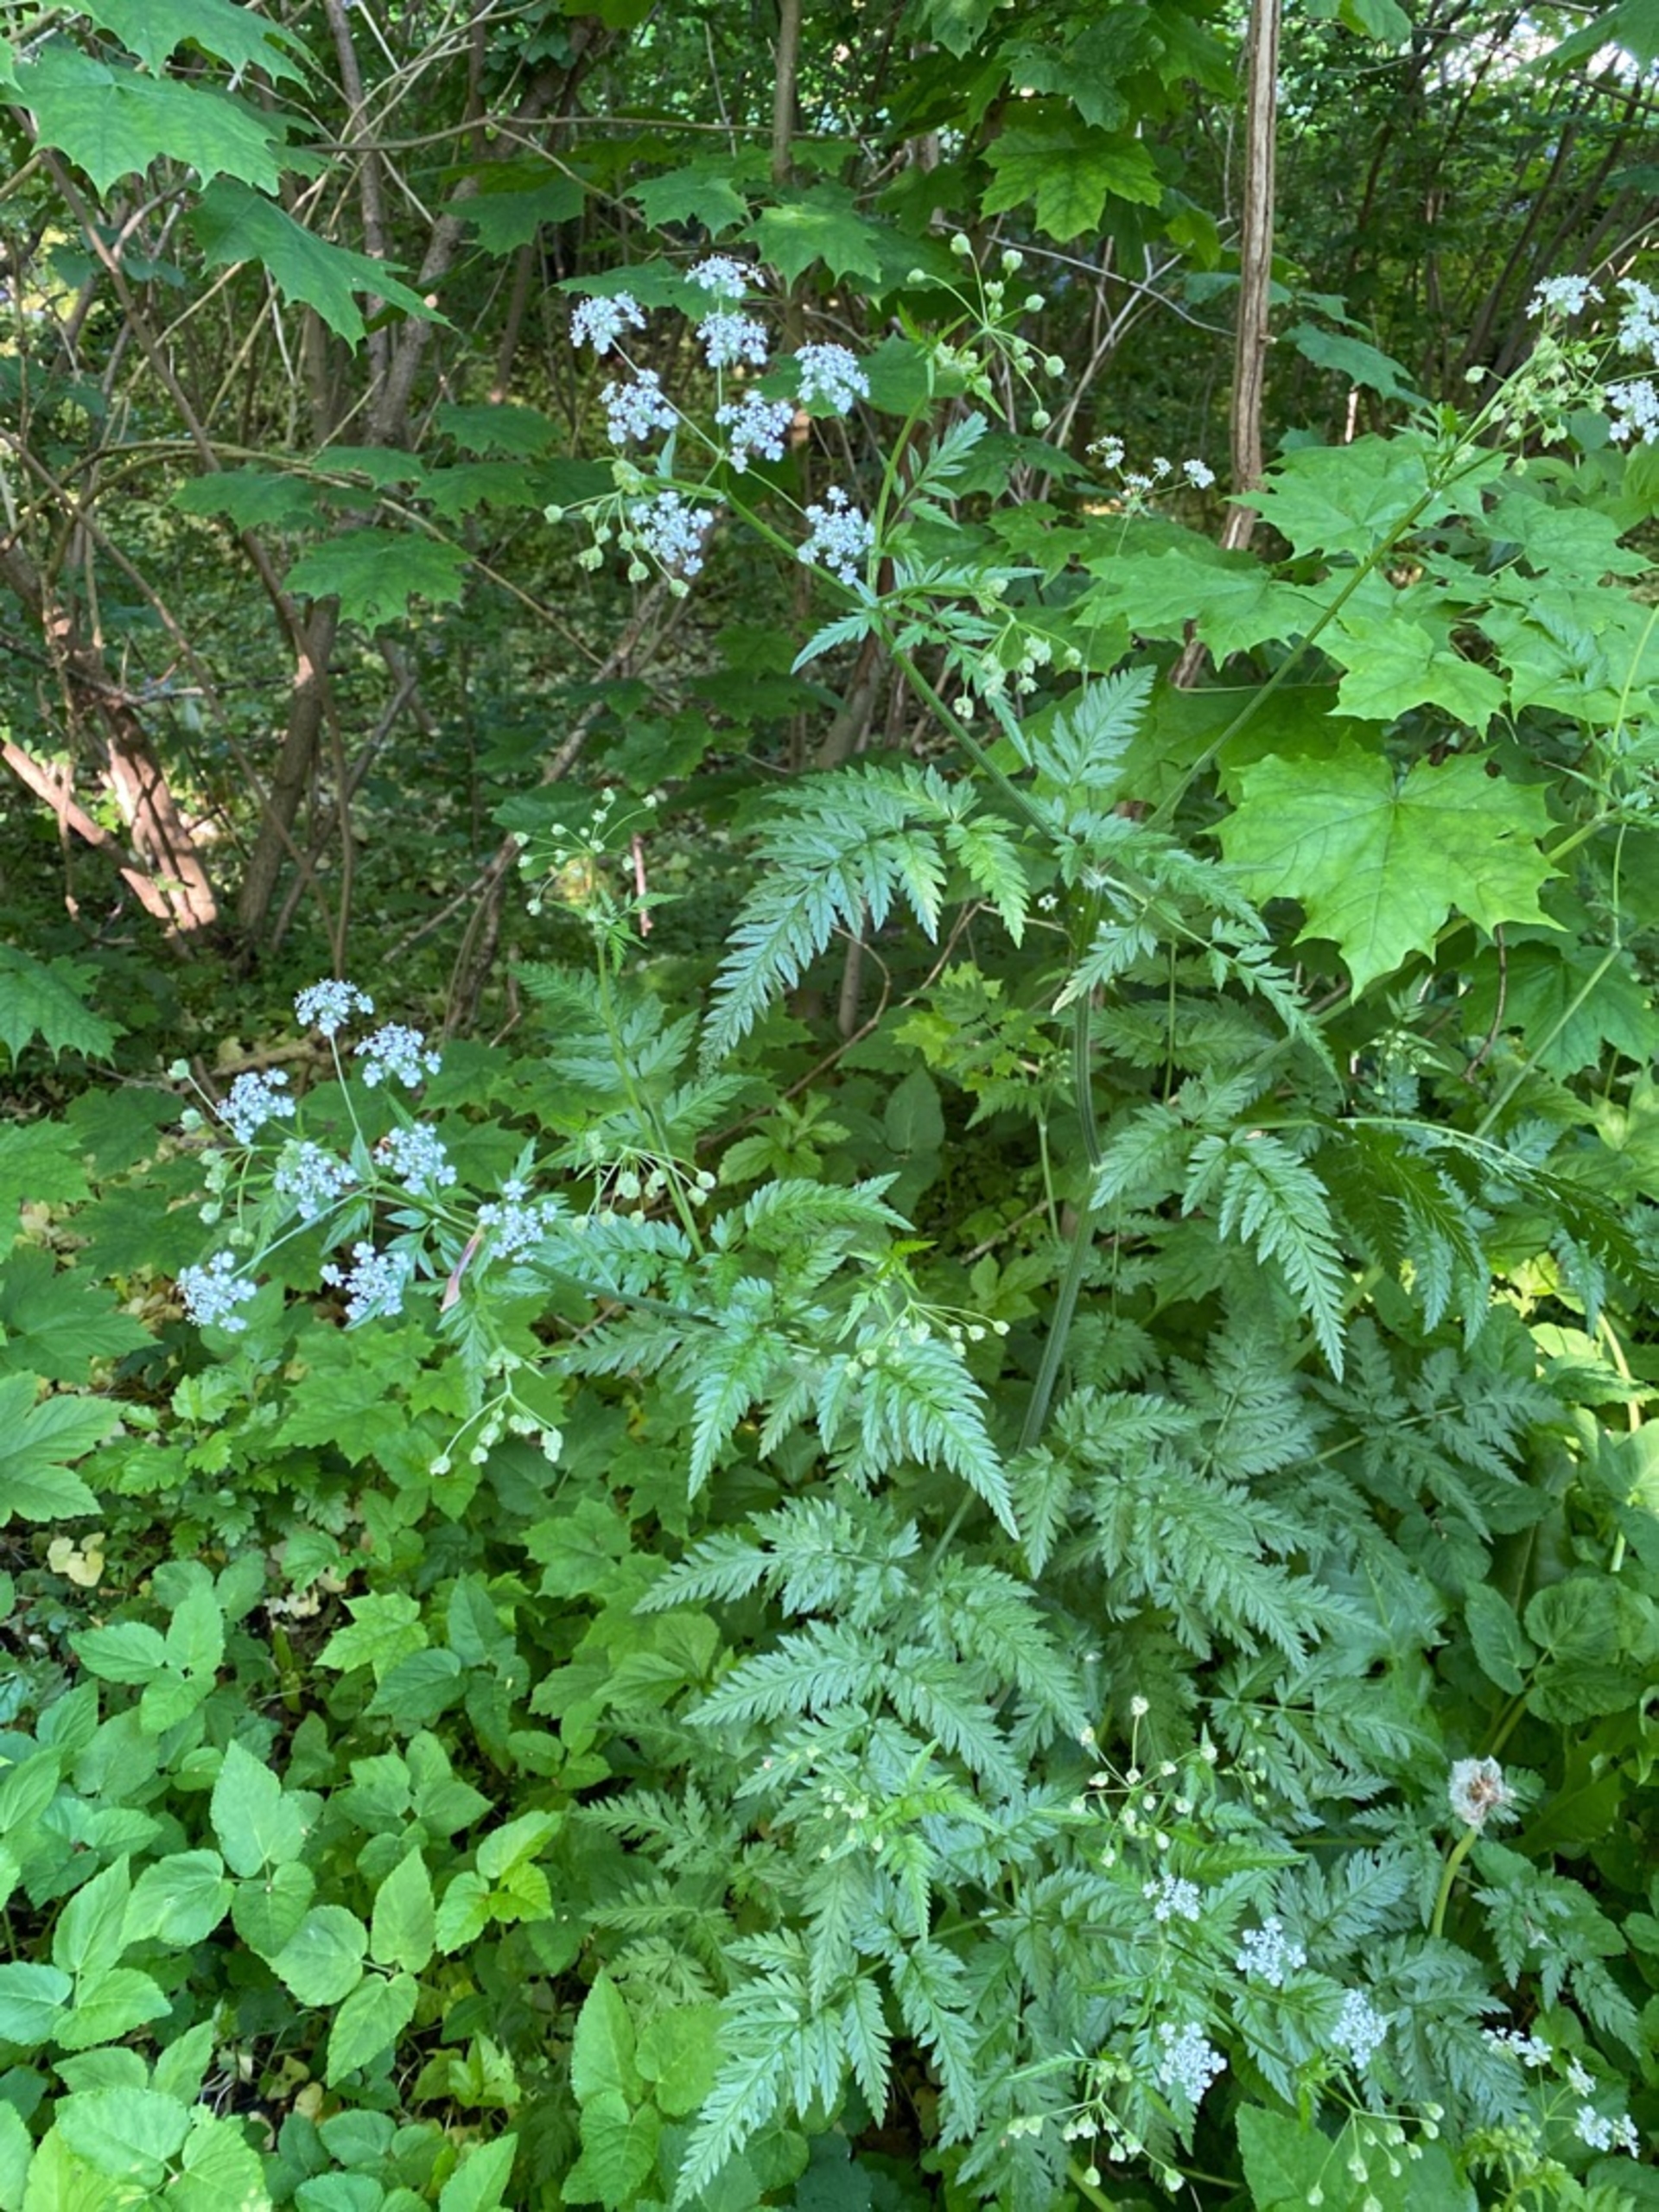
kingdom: Plantae
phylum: Tracheophyta
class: Magnoliopsida
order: Apiales
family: Apiaceae
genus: Anthriscus
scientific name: Anthriscus sylvestris
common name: Vild kørvel
